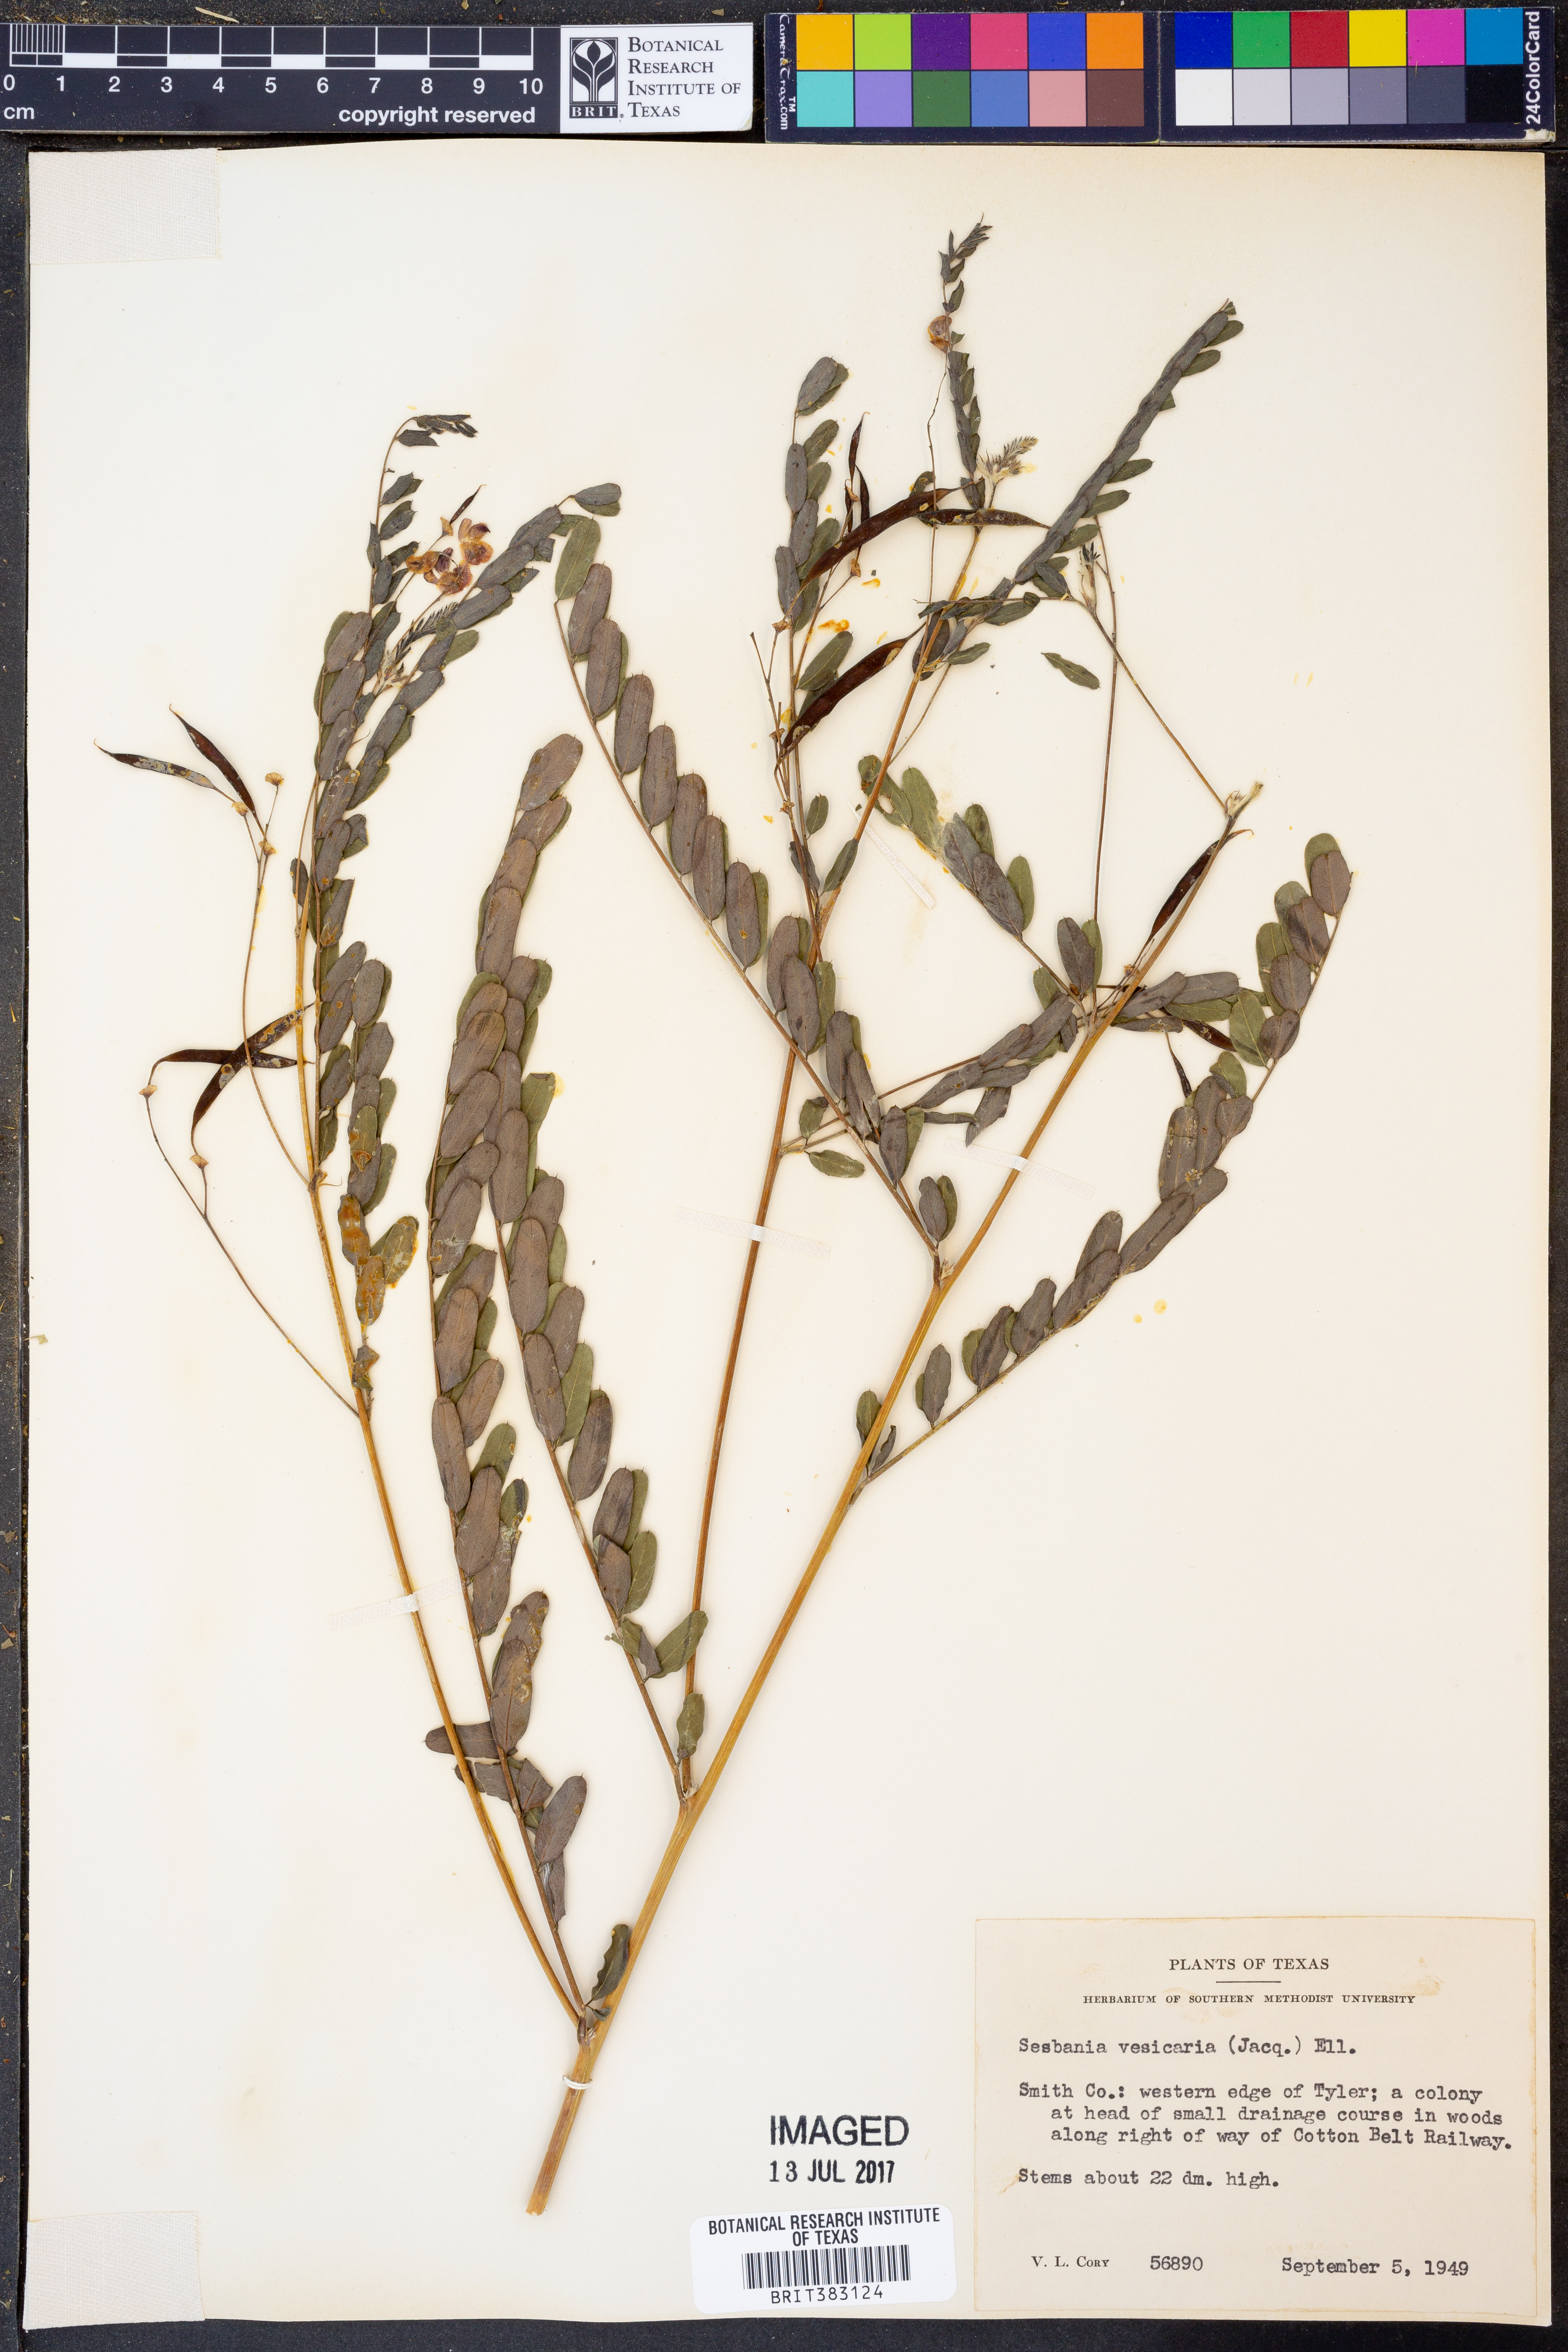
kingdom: Plantae
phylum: Tracheophyta
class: Magnoliopsida
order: Fabales
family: Fabaceae
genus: Sesbania
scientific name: Sesbania vesicaria
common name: Bagpod
